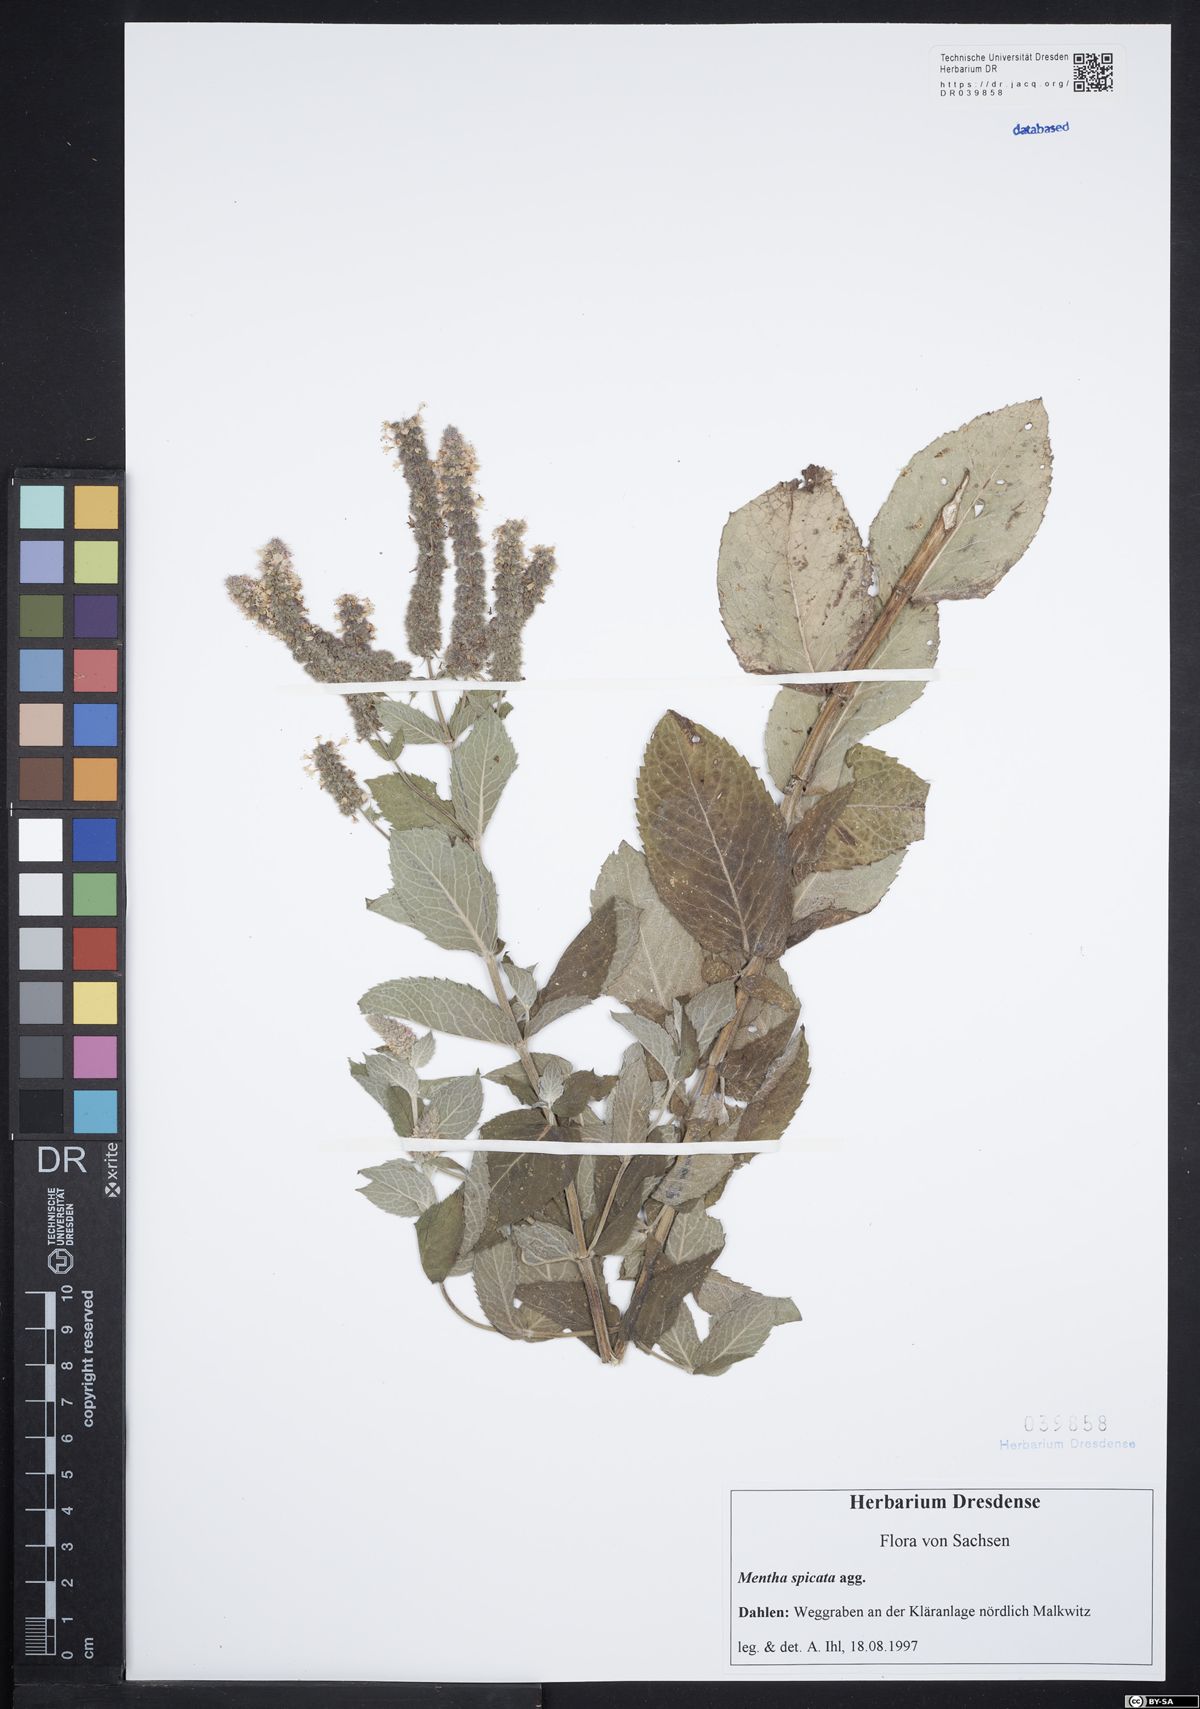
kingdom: Plantae
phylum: Tracheophyta
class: Magnoliopsida
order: Lamiales
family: Lamiaceae
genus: Mentha
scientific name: Mentha spicata
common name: Spearmint
